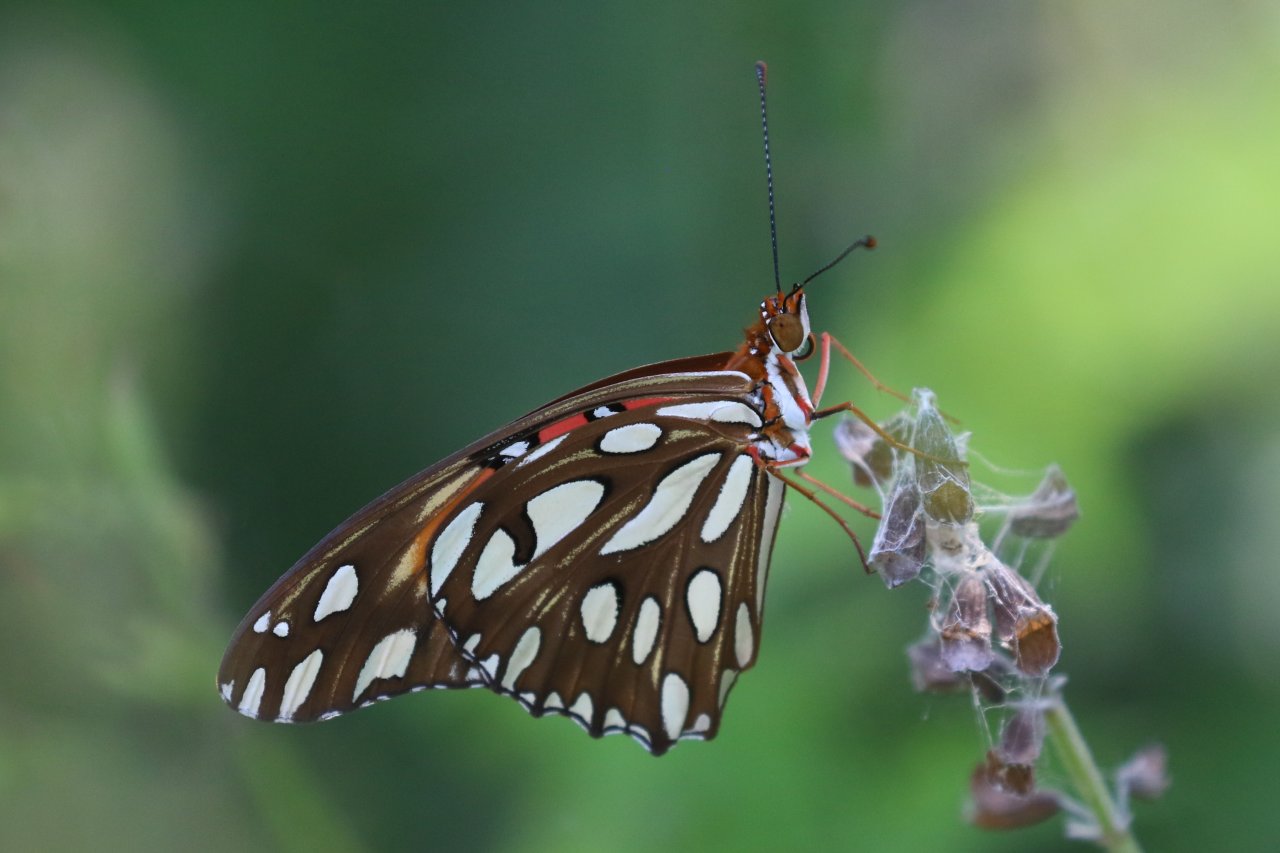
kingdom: Animalia
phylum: Arthropoda
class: Insecta
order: Lepidoptera
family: Nymphalidae
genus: Dione
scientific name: Dione vanillae
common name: Gulf Fritillary
